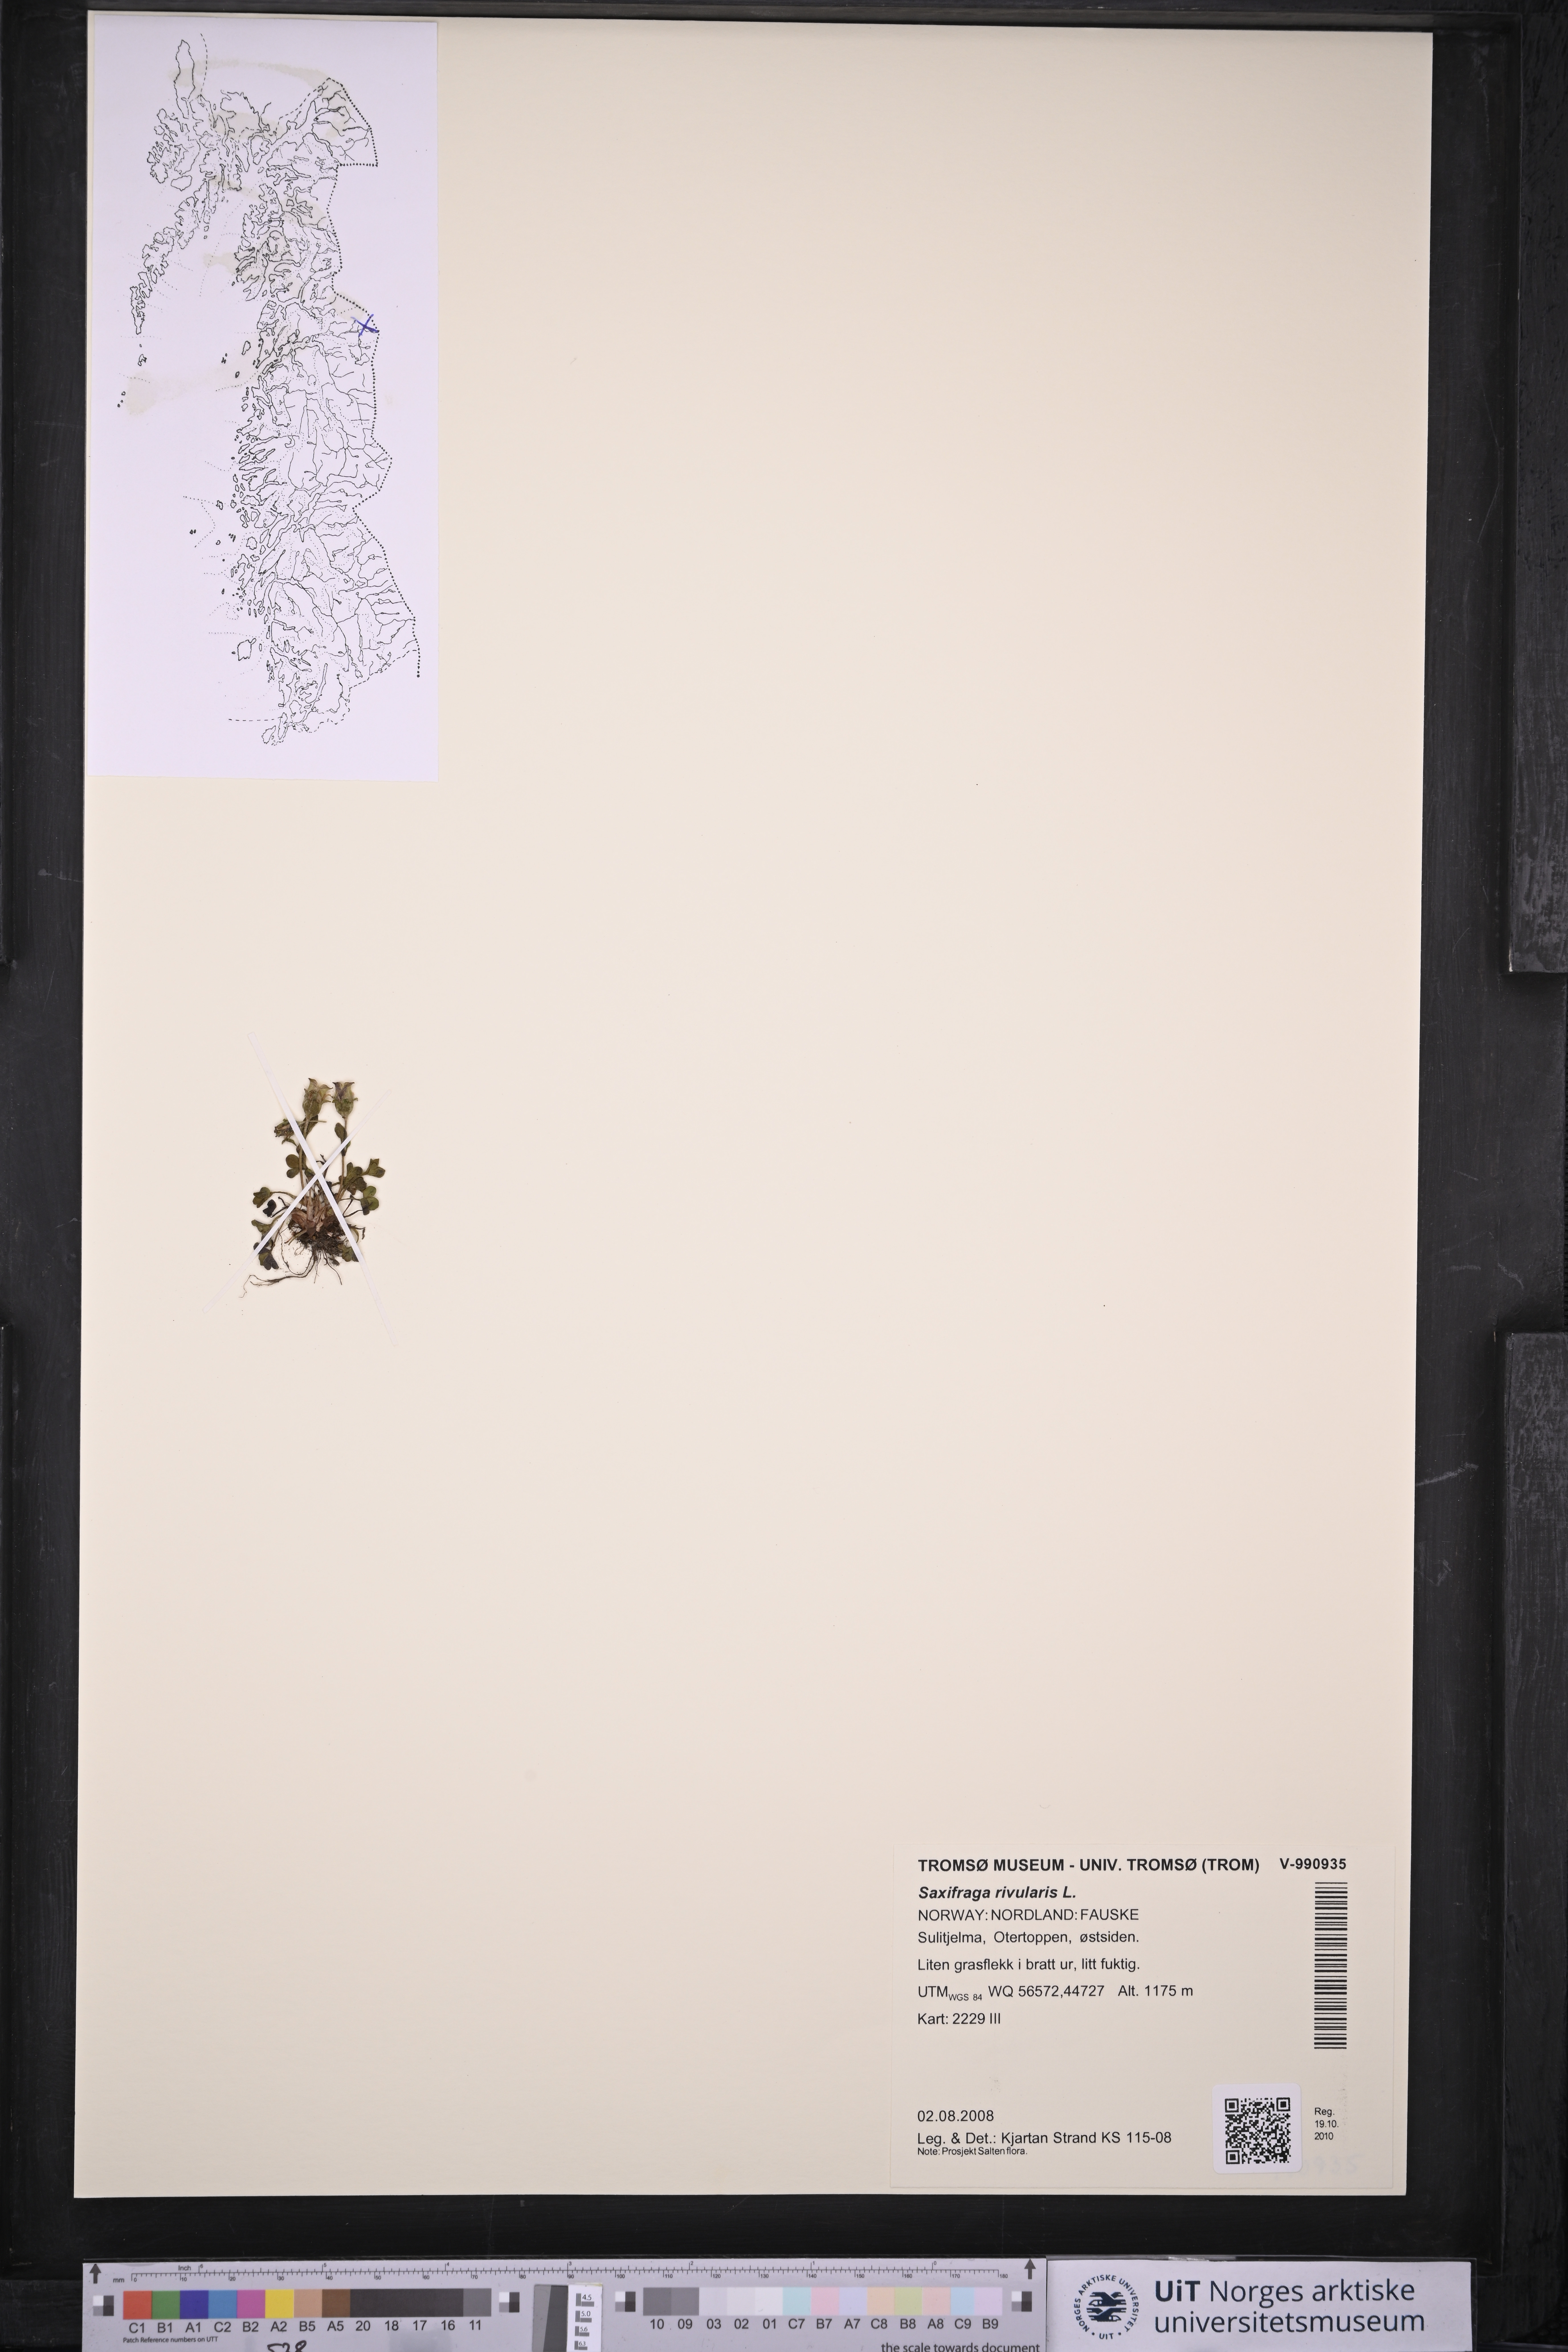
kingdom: Plantae
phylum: Tracheophyta
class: Magnoliopsida
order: Saxifragales
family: Saxifragaceae
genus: Saxifraga
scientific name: Saxifraga rivularis
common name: Highland saxifrage
